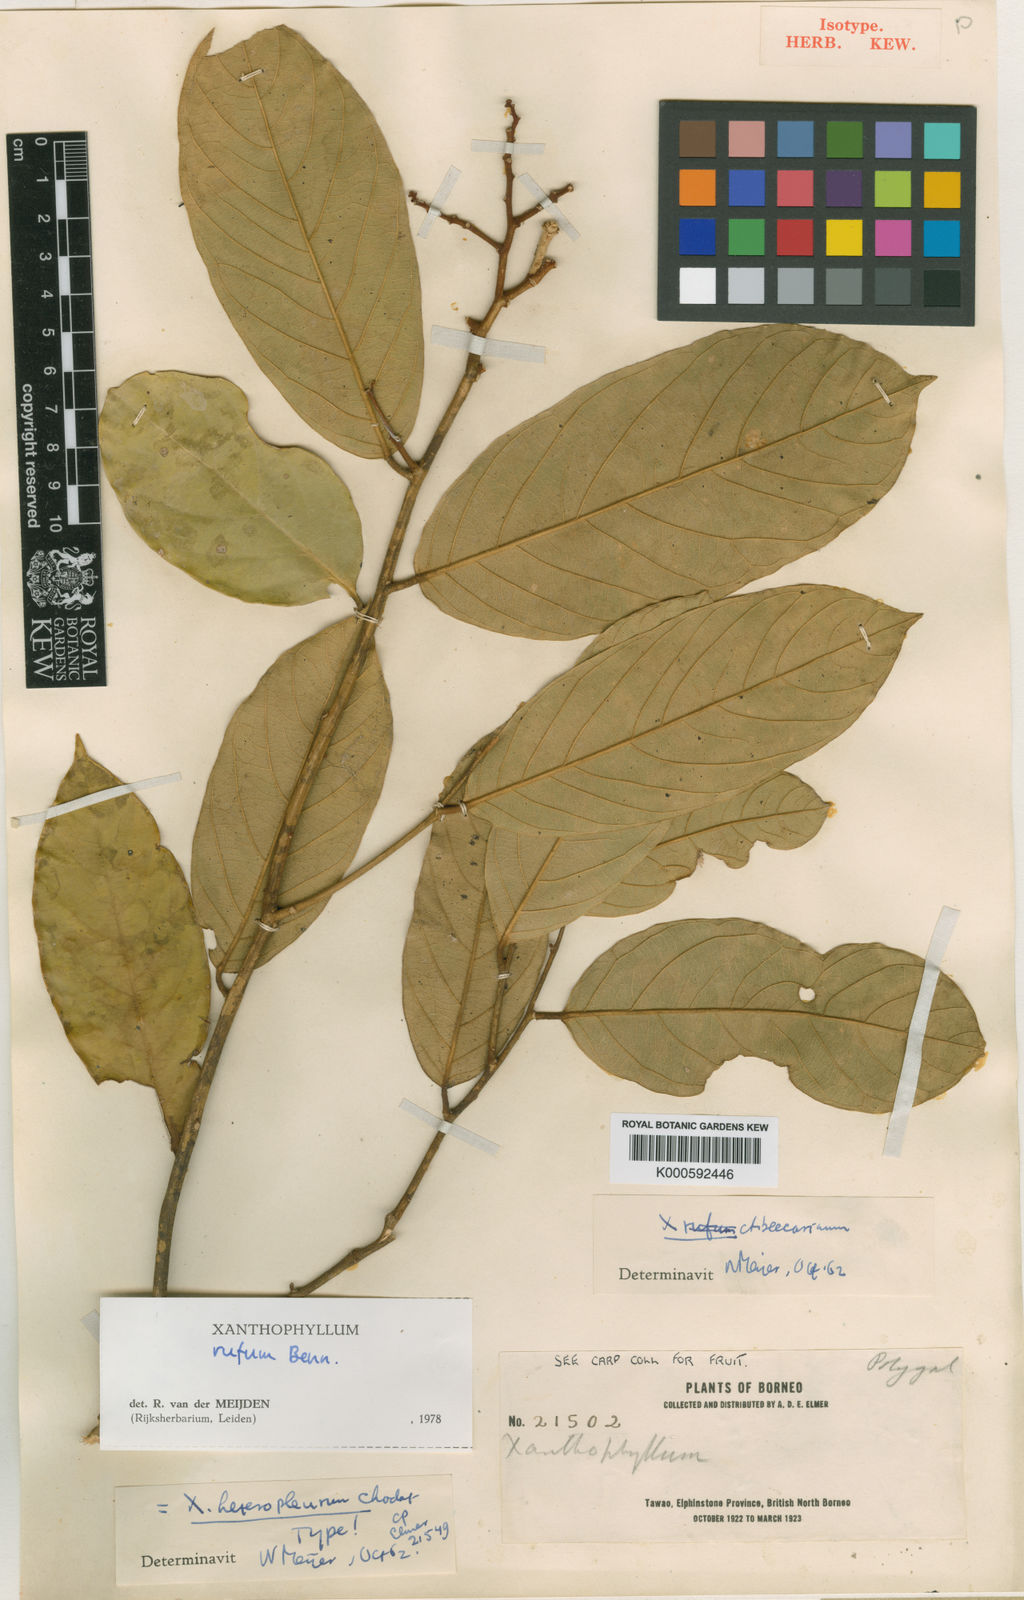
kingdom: Plantae
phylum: Tracheophyta
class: Magnoliopsida
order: Fabales
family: Polygalaceae
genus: Xanthophyllum
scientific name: Xanthophyllum rufum
